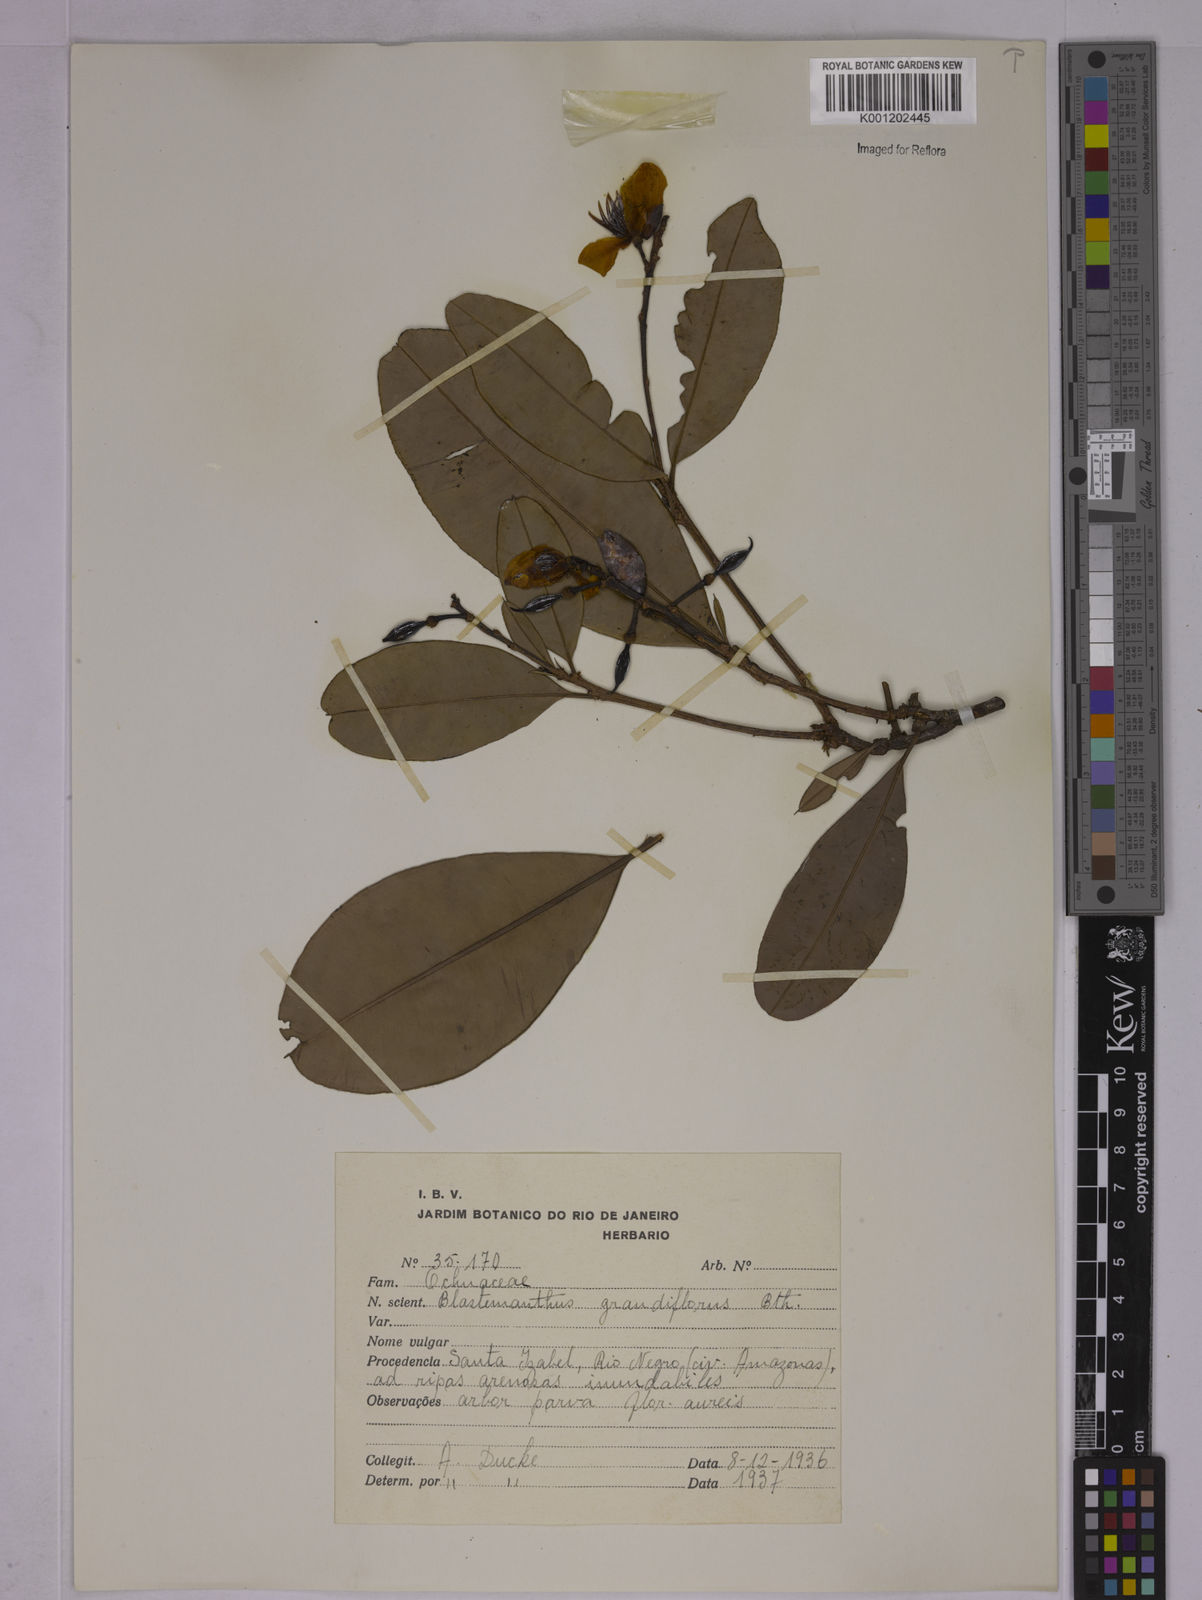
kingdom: Plantae
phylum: Tracheophyta
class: Magnoliopsida
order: Malpighiales
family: Ochnaceae
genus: Blastemanthus
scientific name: Blastemanthus
